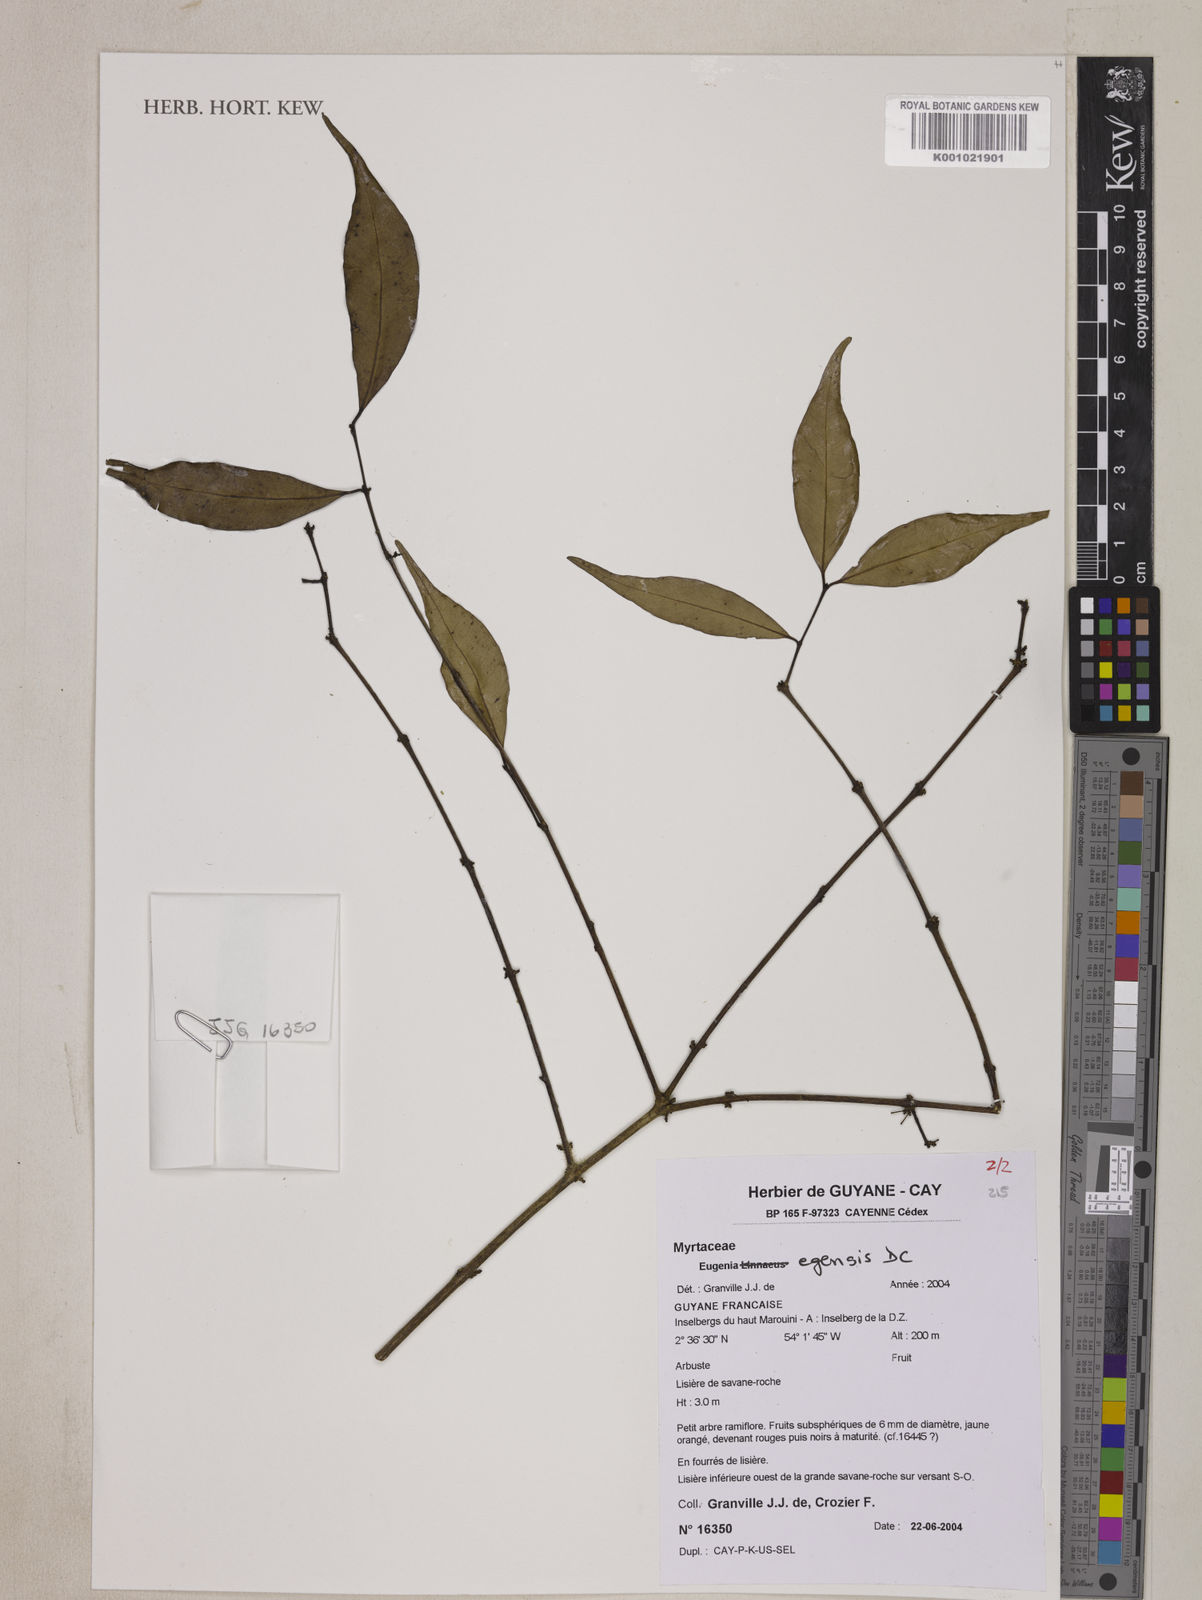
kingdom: Plantae
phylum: Tracheophyta
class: Magnoliopsida
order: Myrtales
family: Myrtaceae
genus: Eugenia
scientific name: Eugenia egensis
